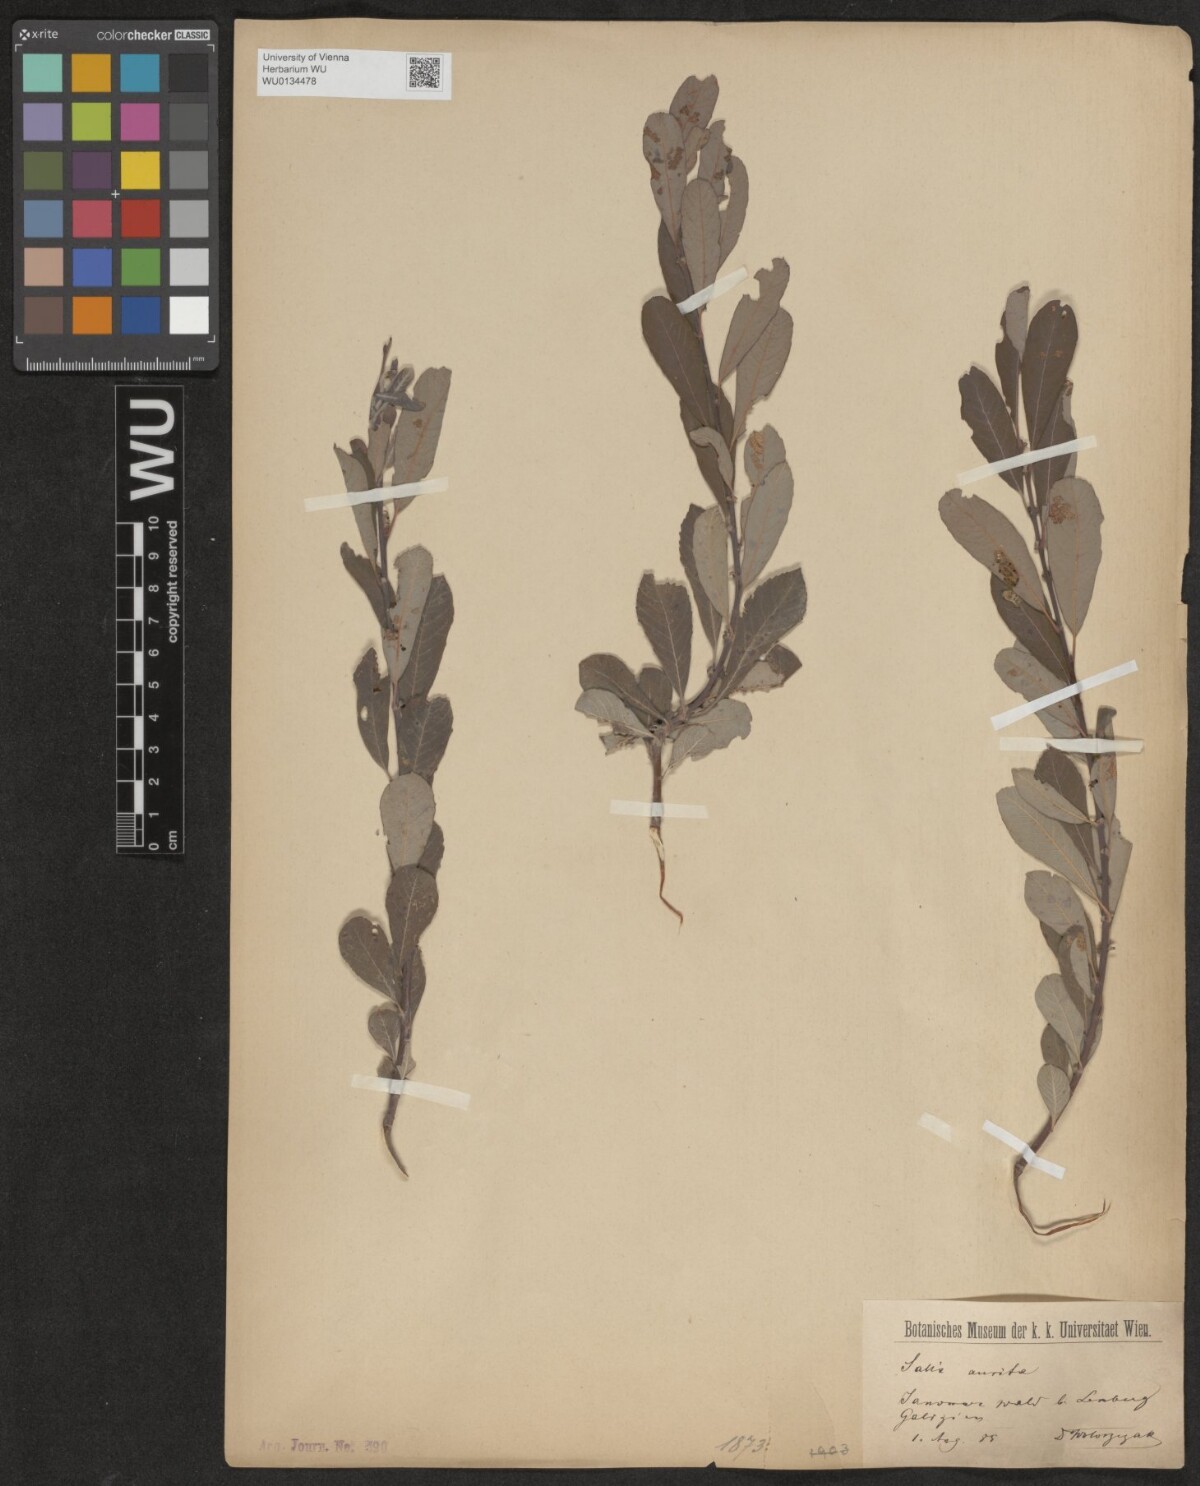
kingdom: Plantae
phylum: Tracheophyta
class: Magnoliopsida
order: Malpighiales
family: Salicaceae
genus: Salix
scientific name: Salix aurita
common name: Eared willow
